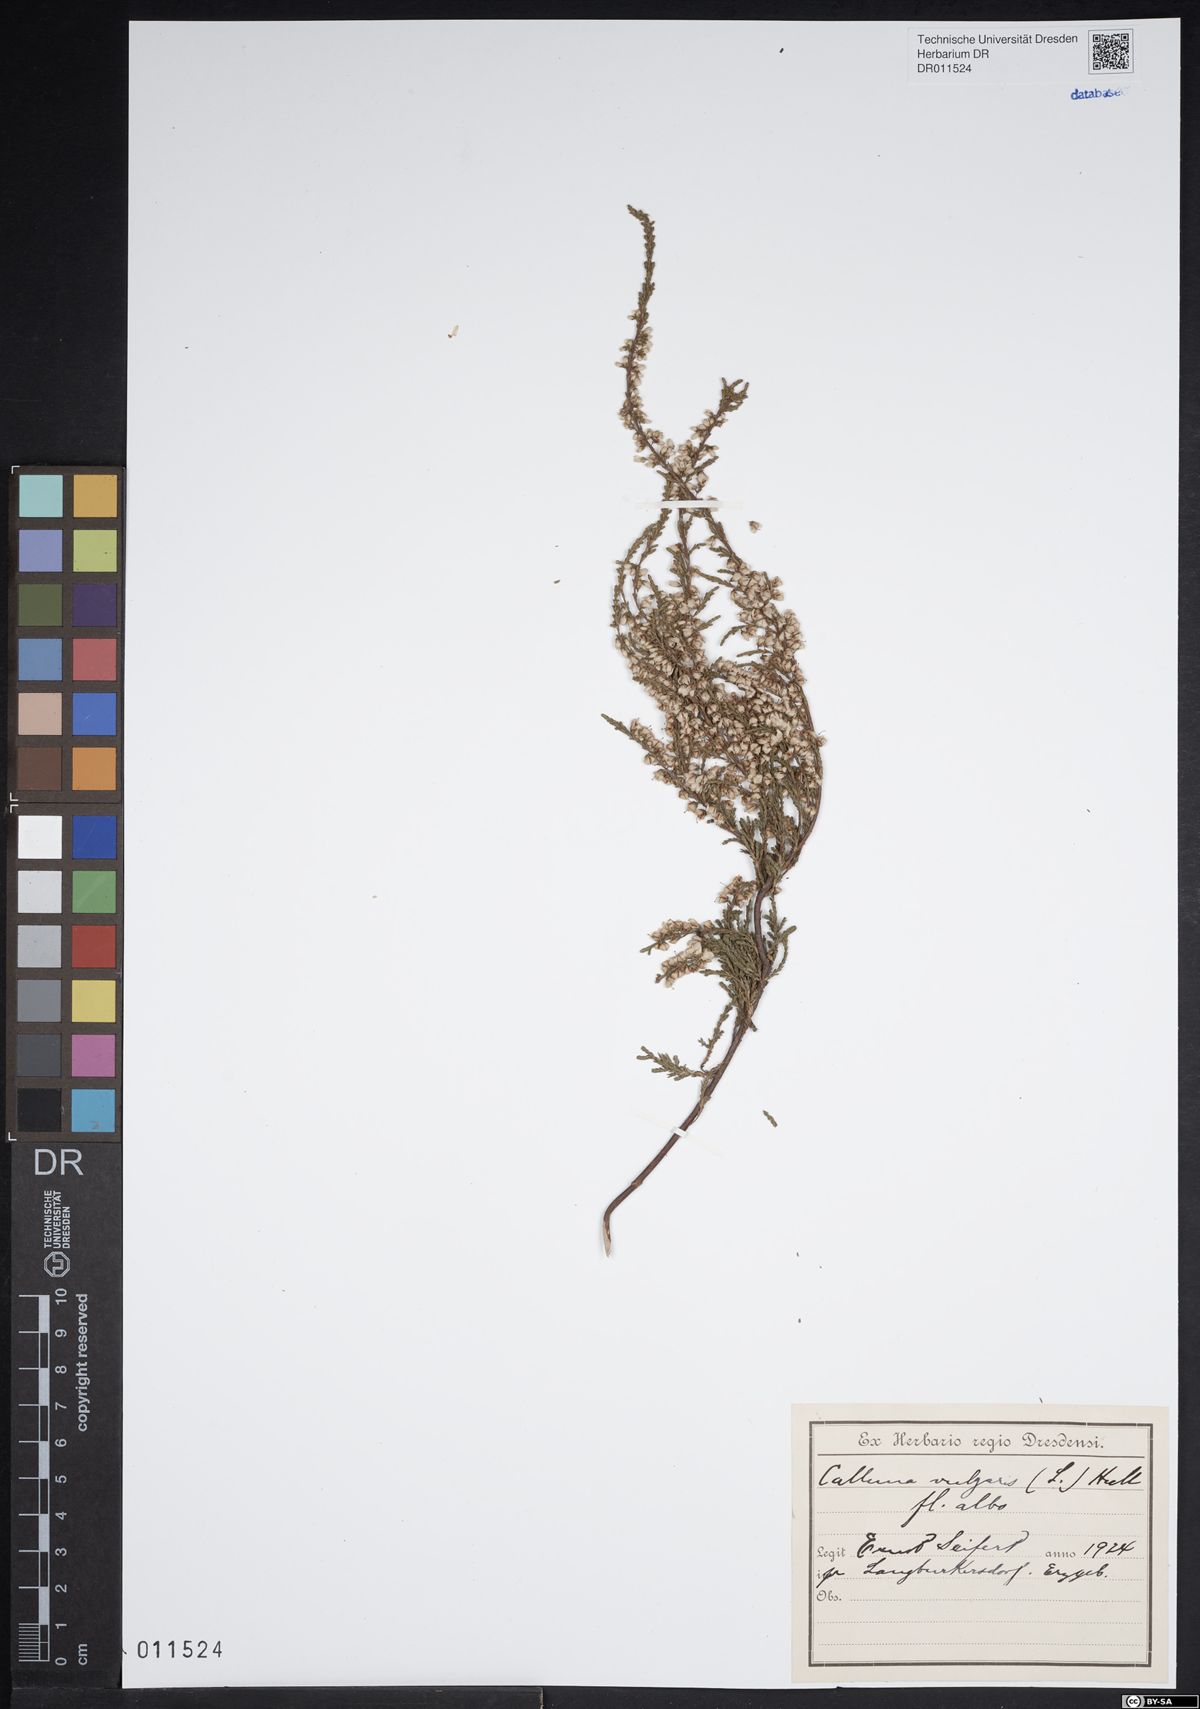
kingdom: Plantae
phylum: Tracheophyta
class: Magnoliopsida
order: Ericales
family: Ericaceae
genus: Calluna
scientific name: Calluna vulgaris
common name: Heather
